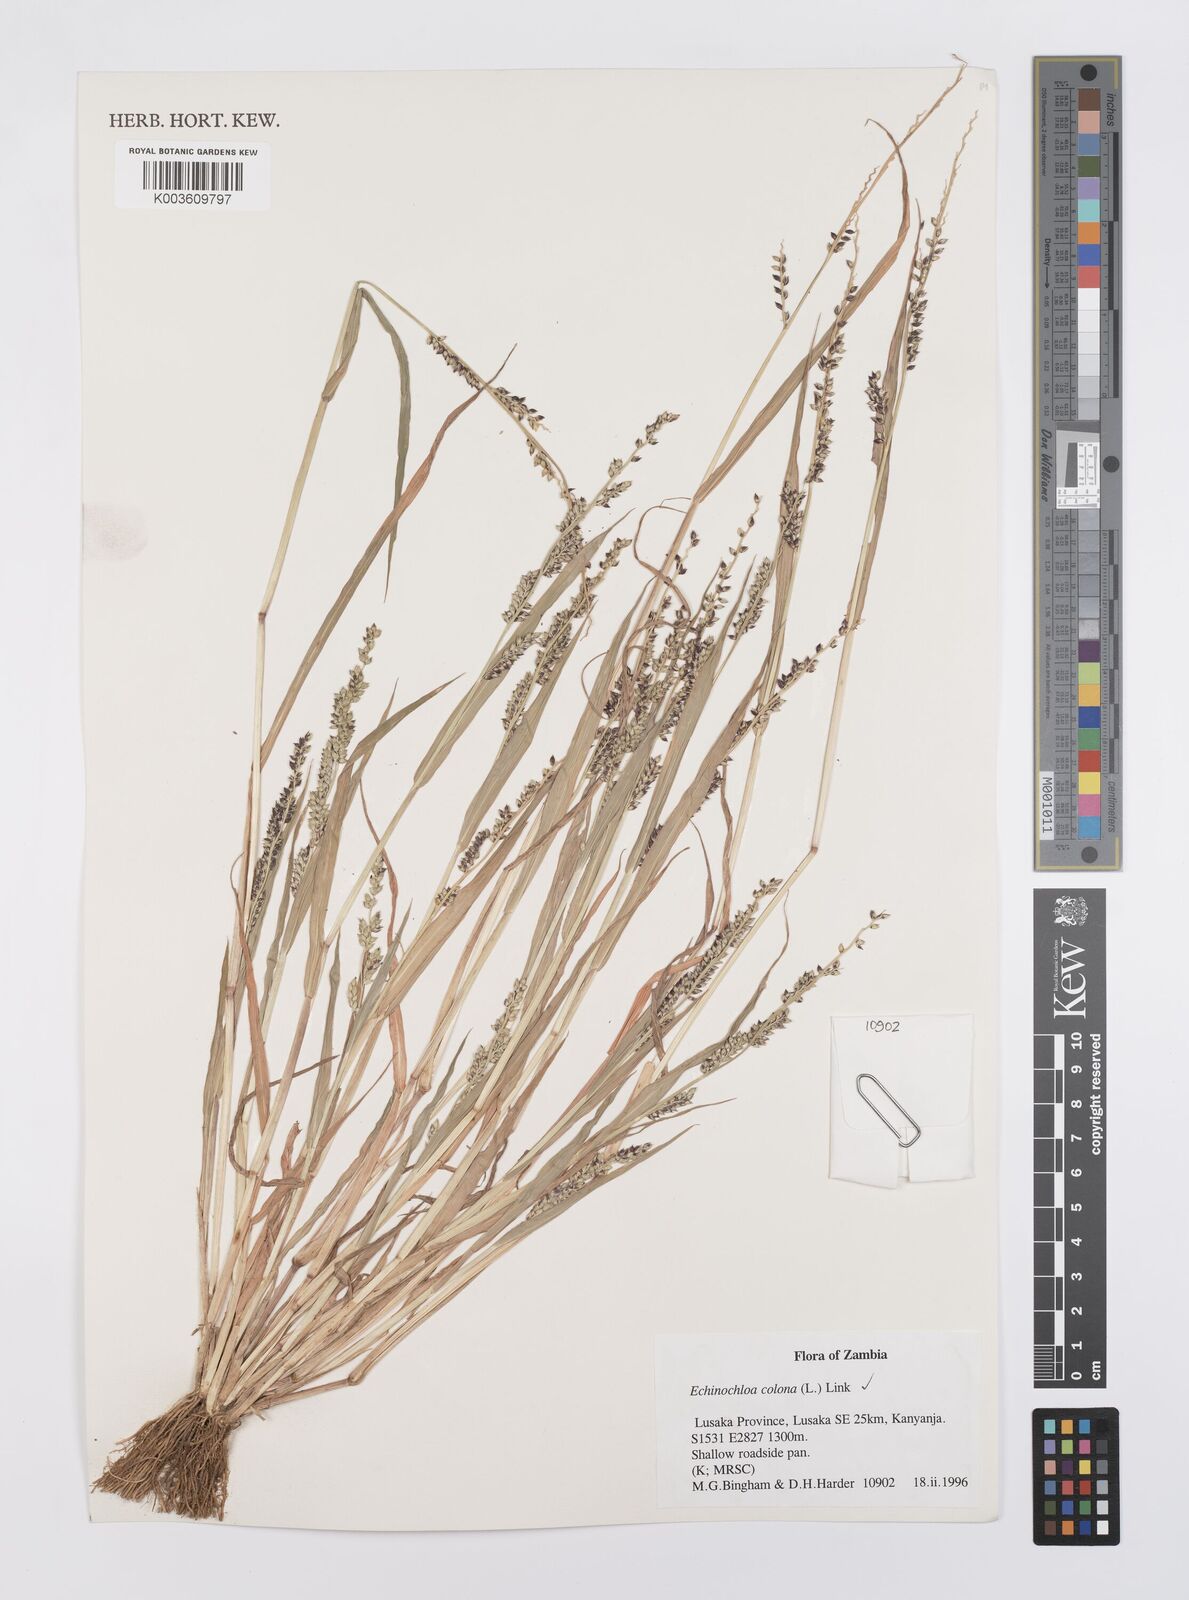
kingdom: Plantae
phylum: Tracheophyta
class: Liliopsida
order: Poales
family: Poaceae
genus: Echinochloa
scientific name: Echinochloa colonum
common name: Jungle rice
